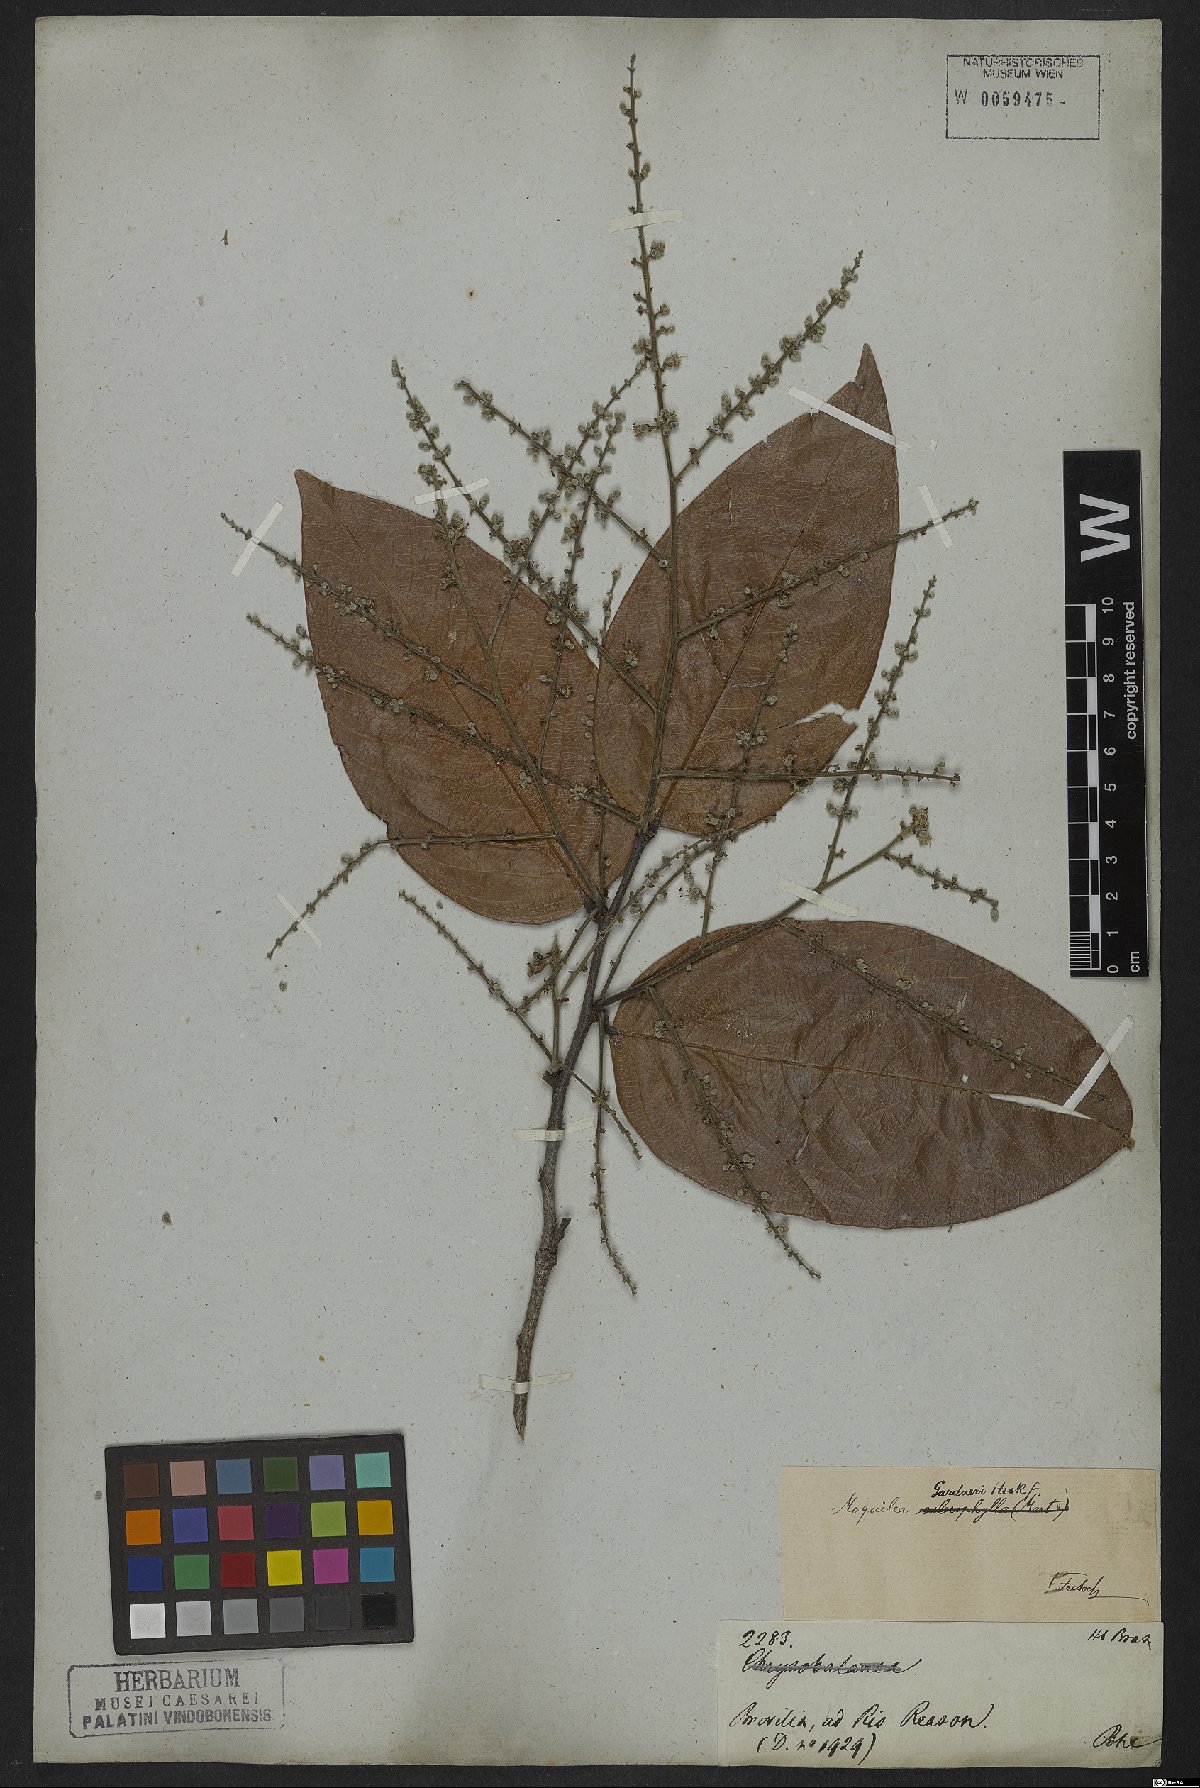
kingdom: Plantae
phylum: Tracheophyta
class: Magnoliopsida
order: Malpighiales
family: Chrysobalanaceae
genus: Leptobalanus
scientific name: Leptobalanus gardneri
